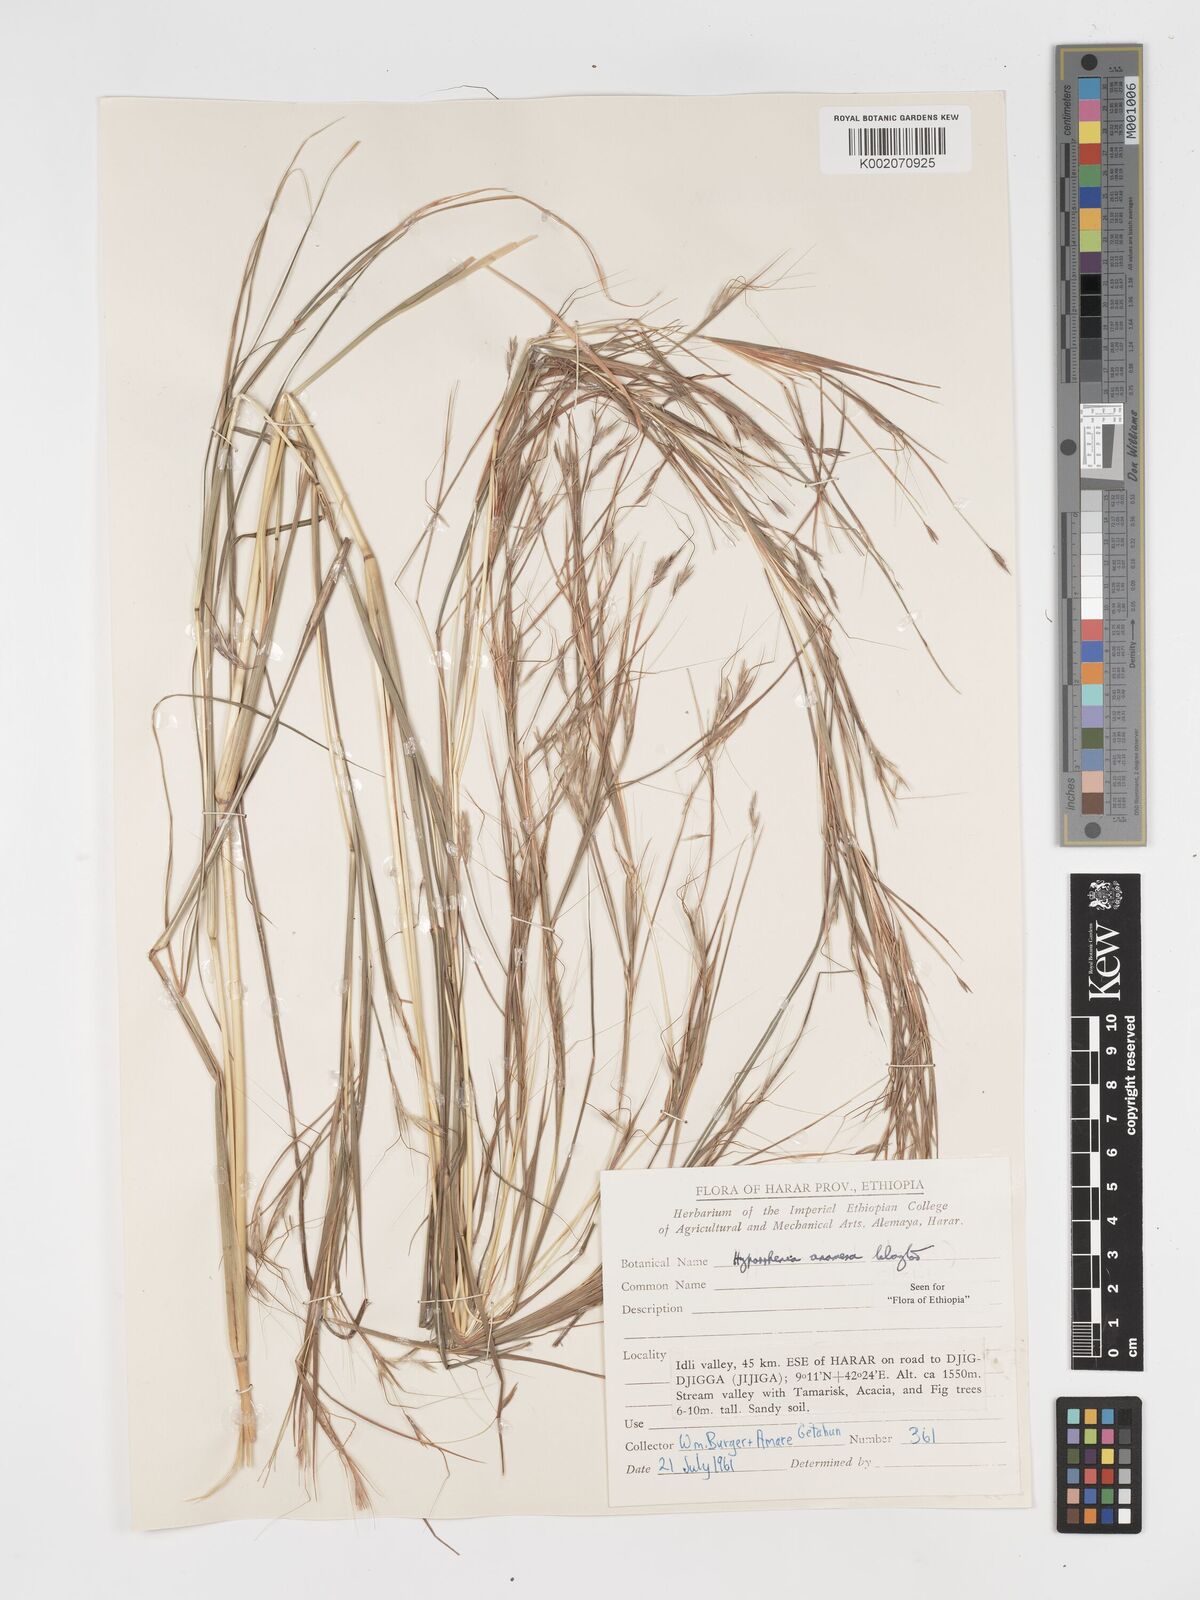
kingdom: Plantae
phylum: Tracheophyta
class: Liliopsida
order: Poales
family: Poaceae
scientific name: Poaceae
